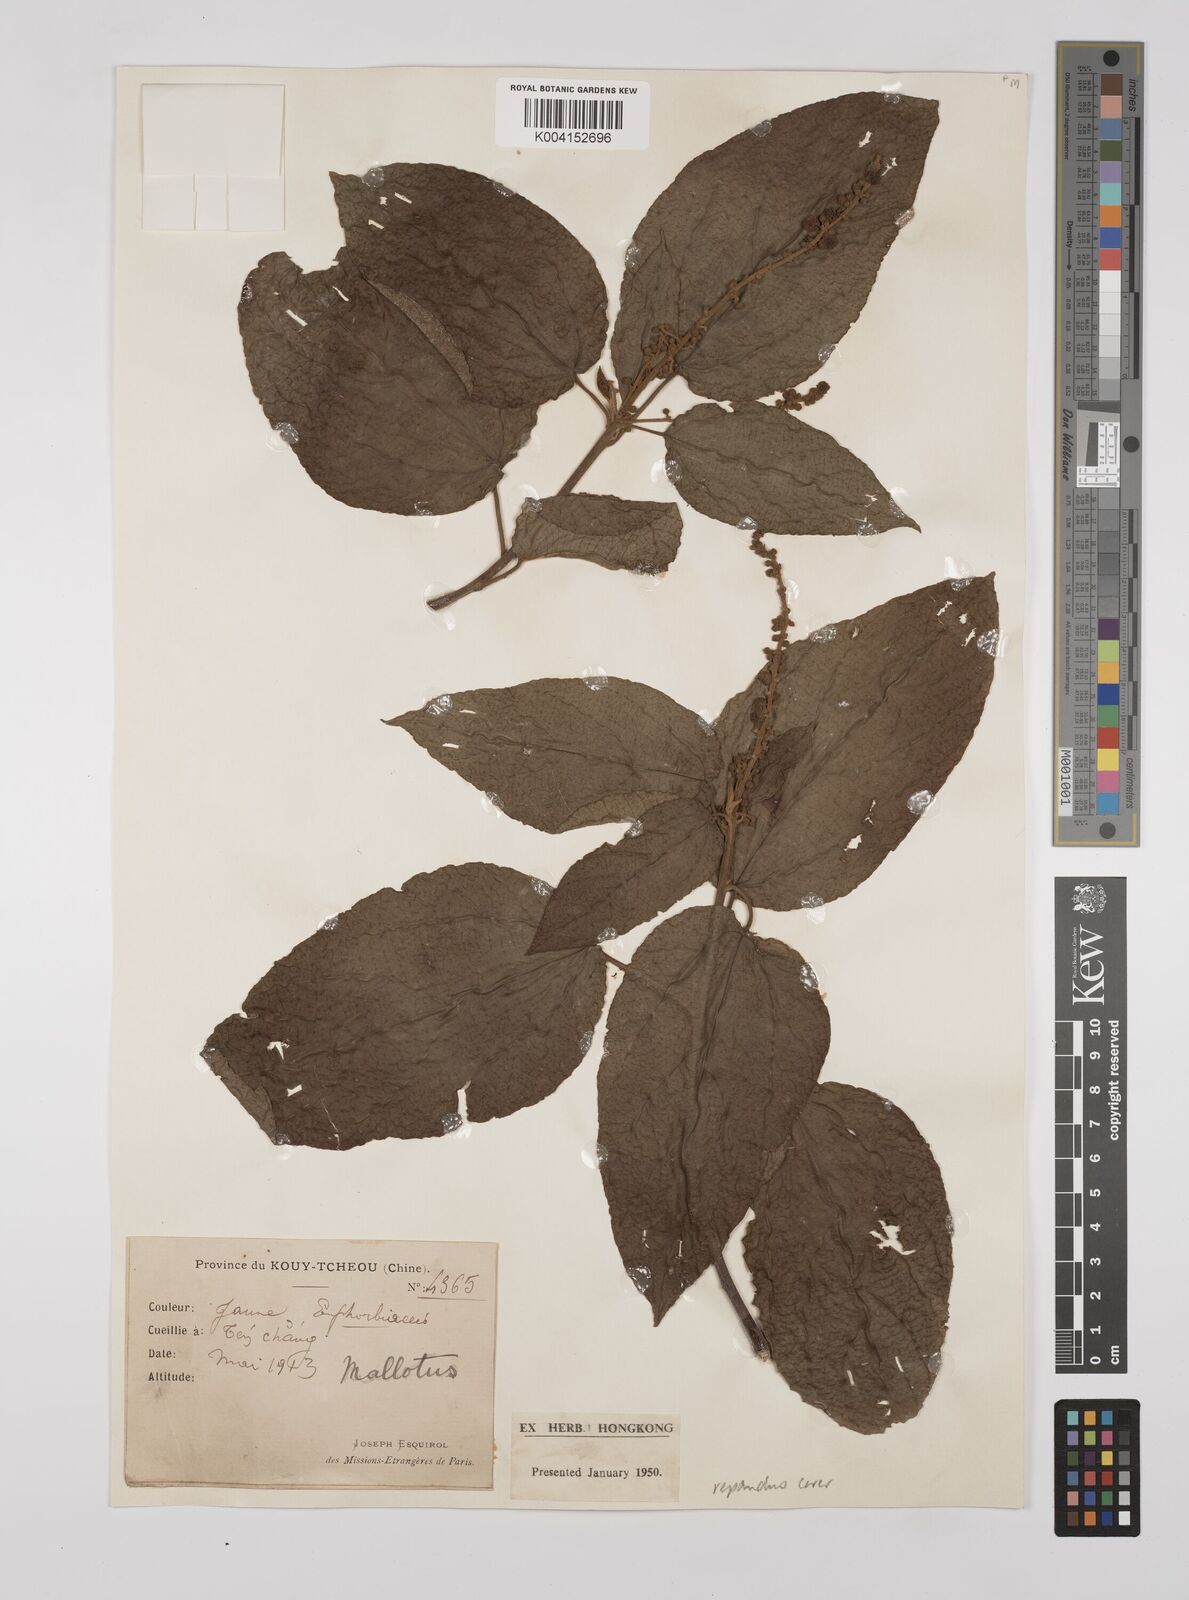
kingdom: Plantae
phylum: Tracheophyta
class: Magnoliopsida
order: Malpighiales
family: Euphorbiaceae
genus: Mallotus
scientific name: Mallotus repandus
